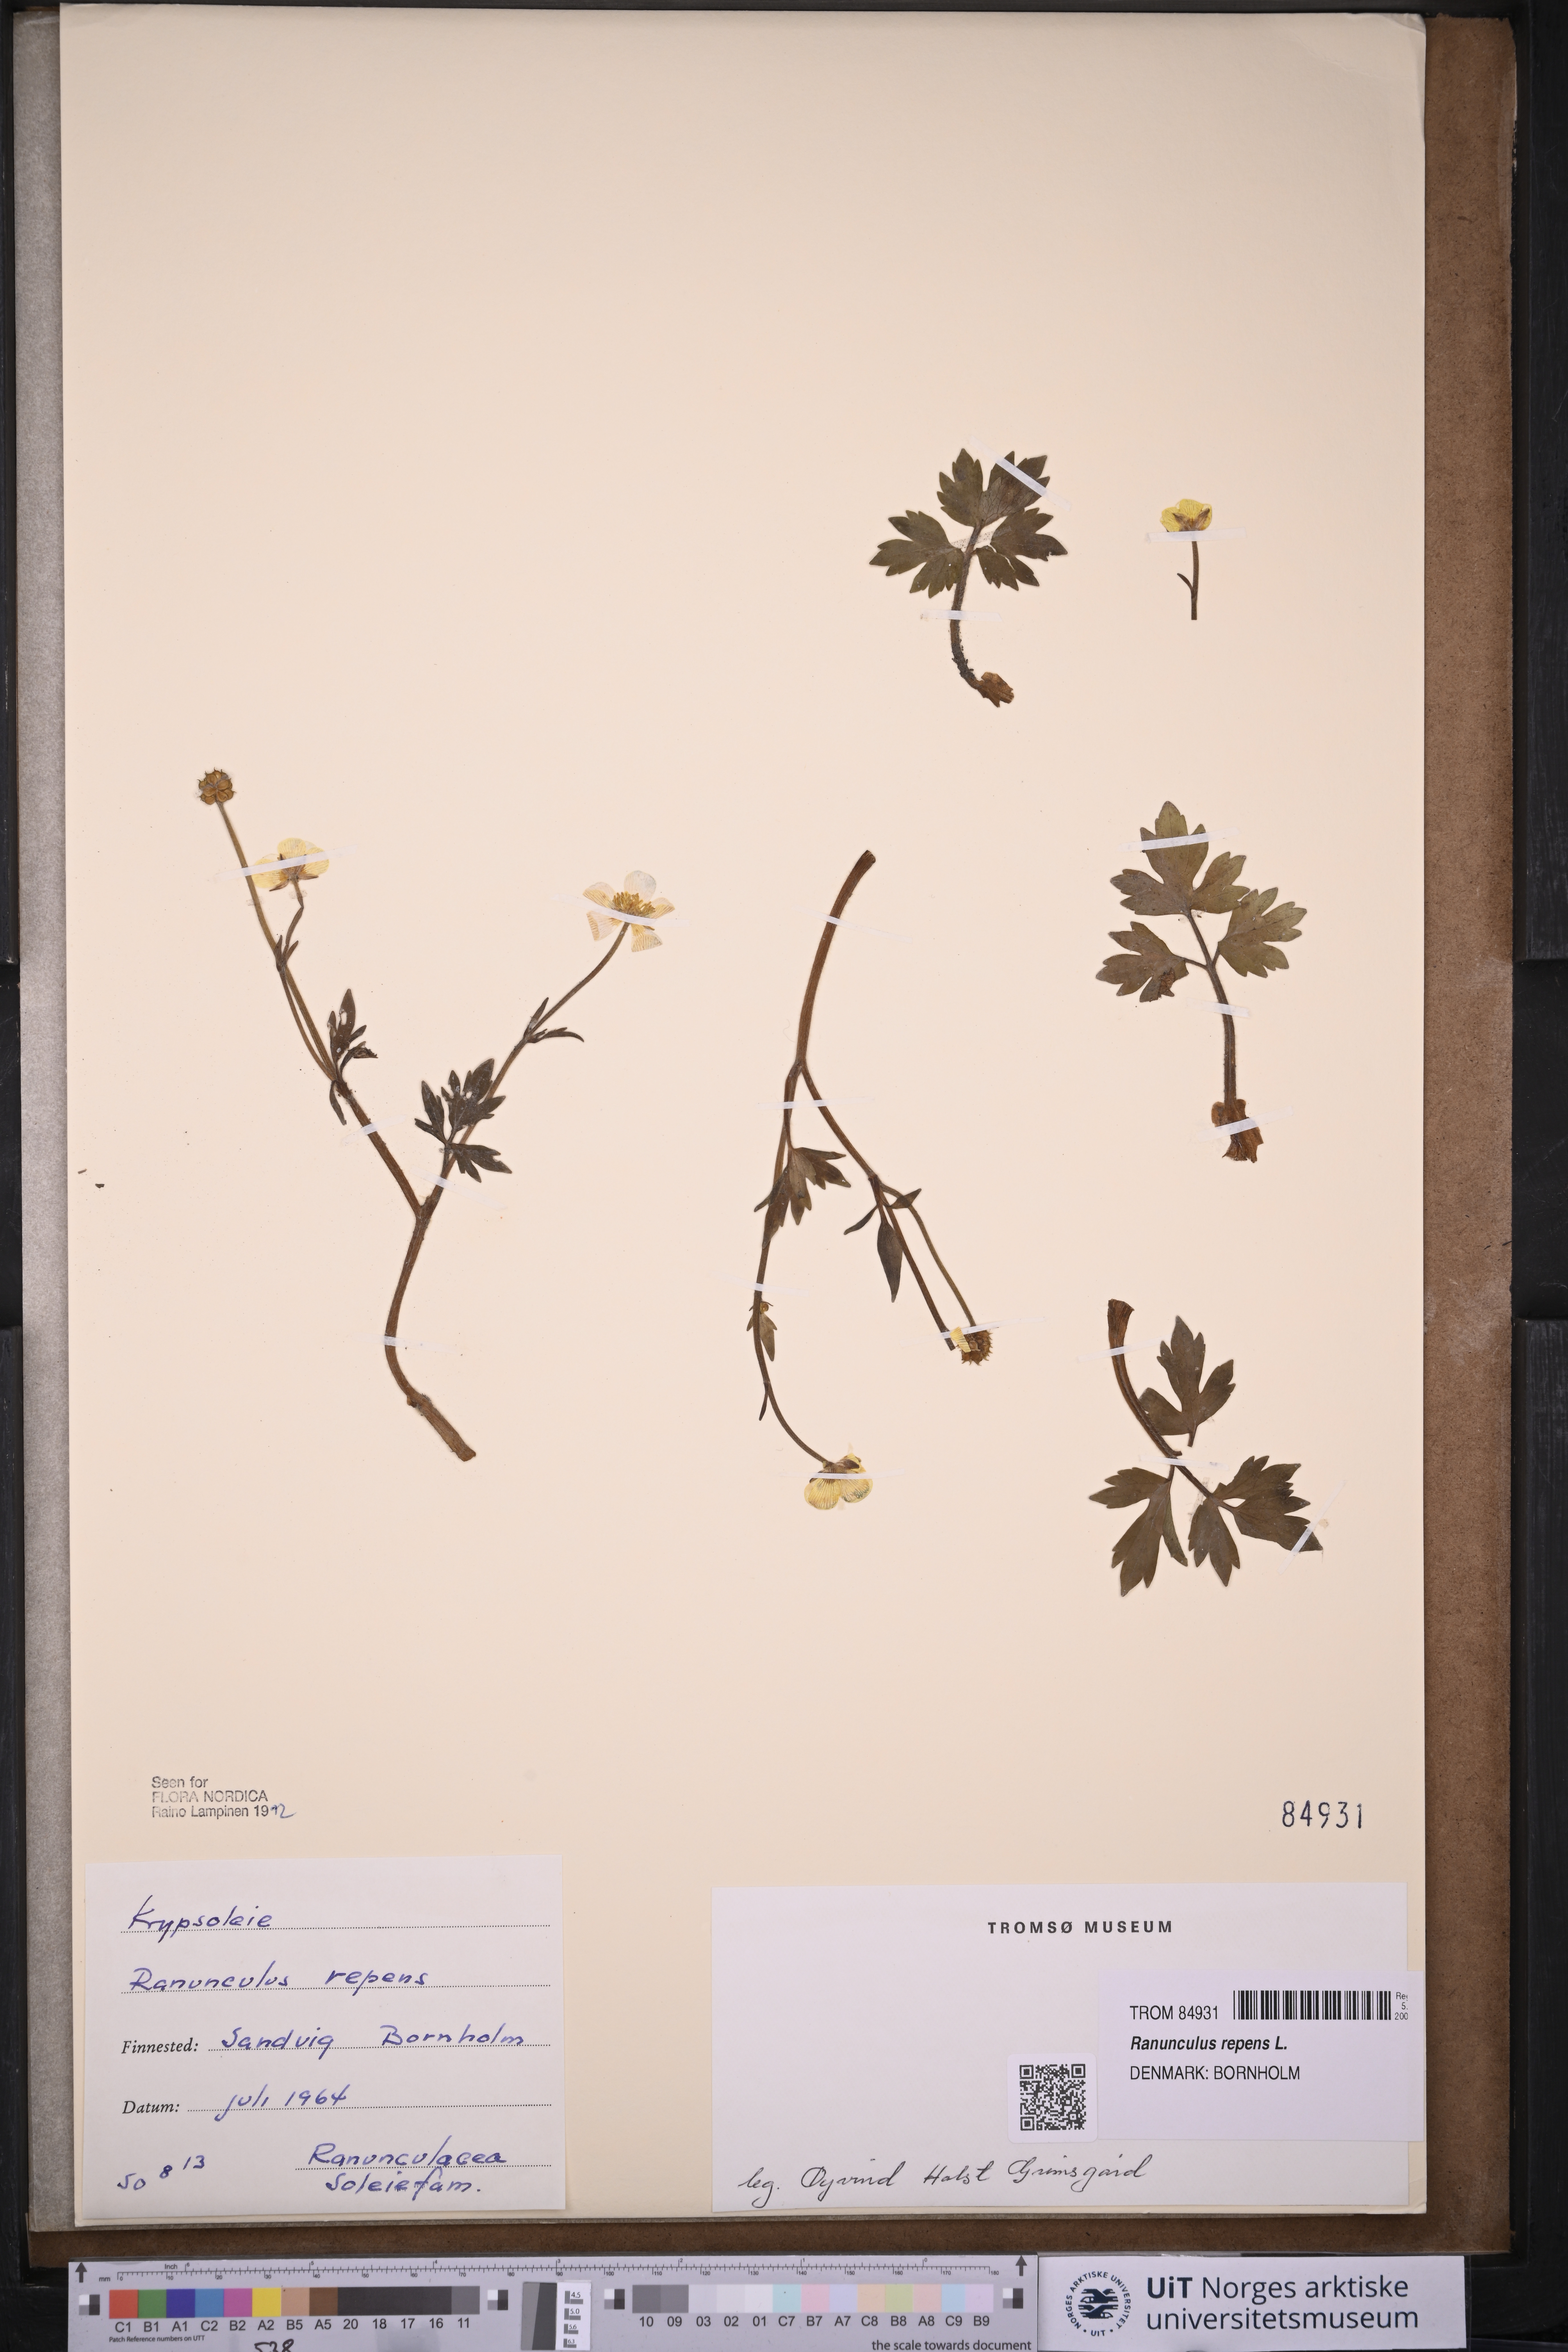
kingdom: Plantae
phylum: Tracheophyta
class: Magnoliopsida
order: Ranunculales
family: Ranunculaceae
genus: Ranunculus
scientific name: Ranunculus repens
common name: Creeping buttercup
